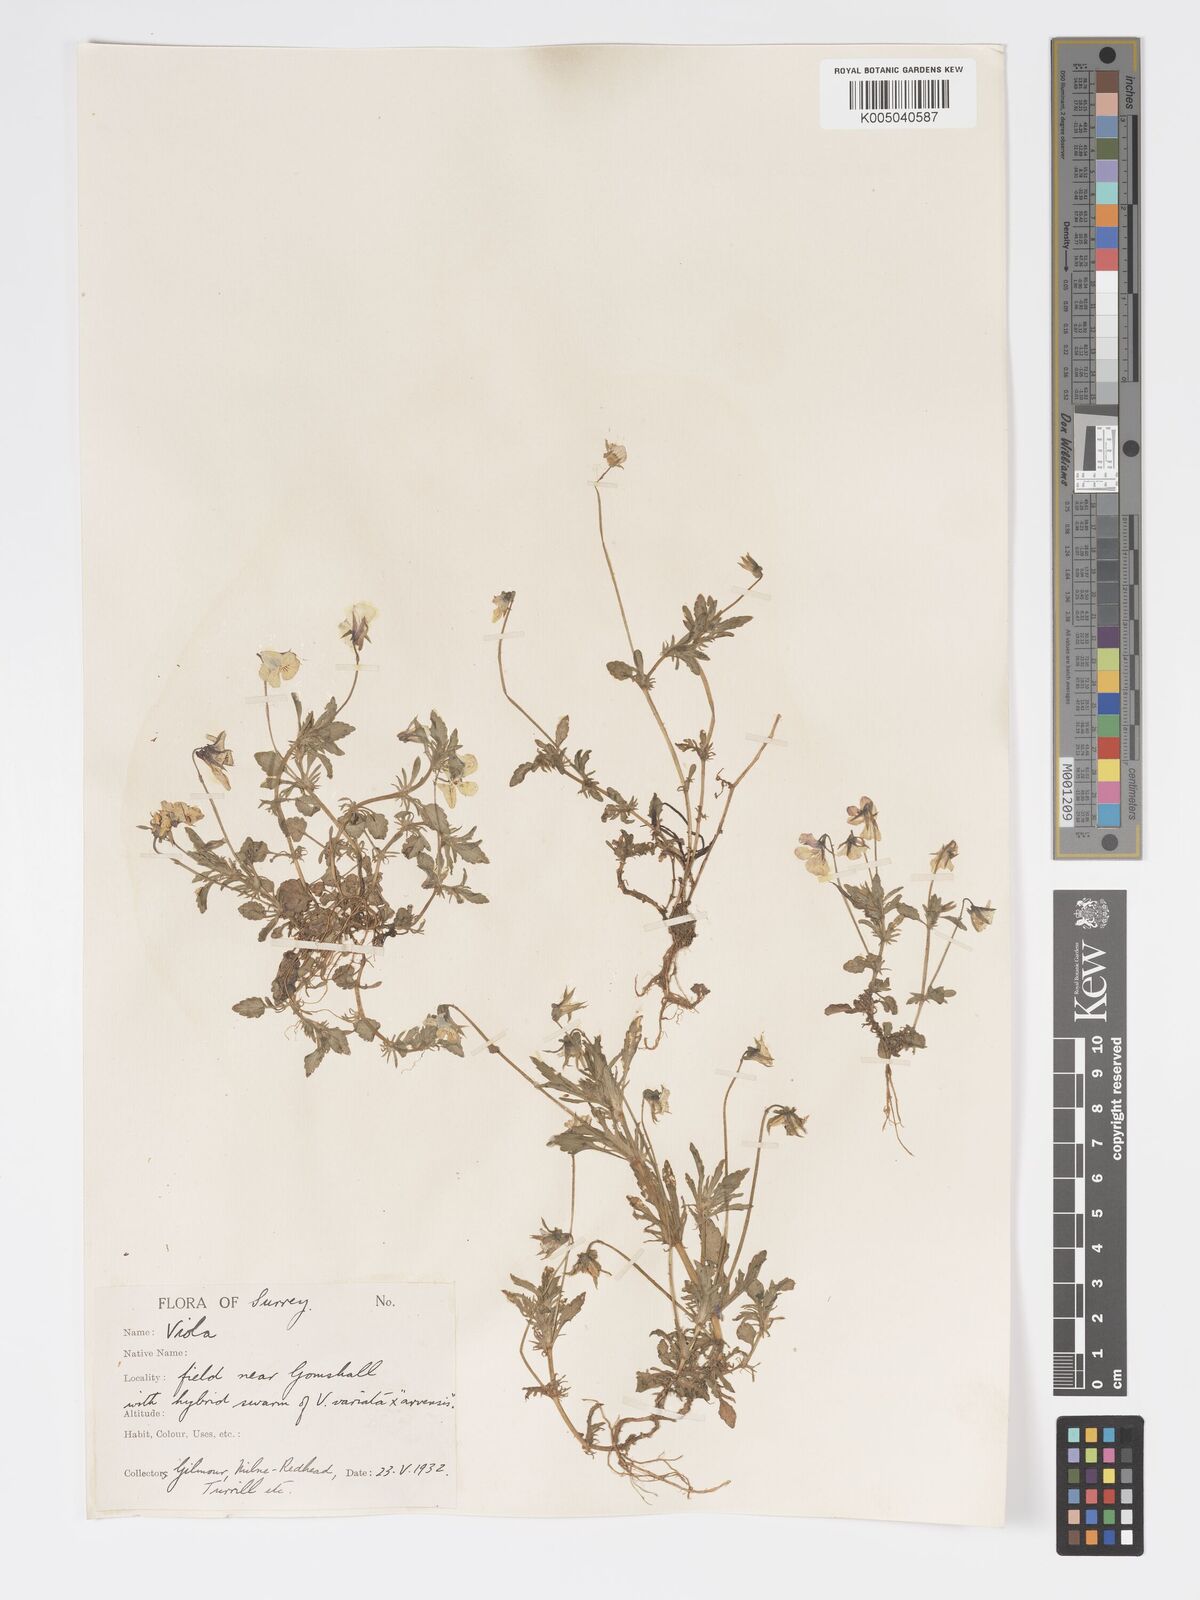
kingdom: Plantae
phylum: Tracheophyta
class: Magnoliopsida
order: Malpighiales
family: Violaceae
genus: Viola
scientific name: Viola
